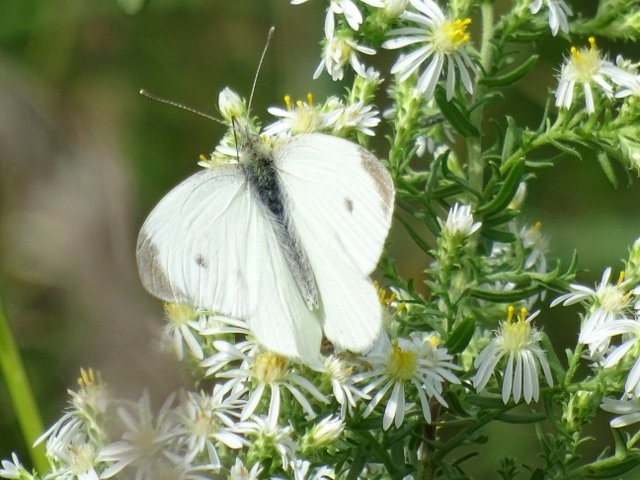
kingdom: Animalia
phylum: Arthropoda
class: Insecta
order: Lepidoptera
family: Pieridae
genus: Pieris
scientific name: Pieris rapae
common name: Cabbage White
